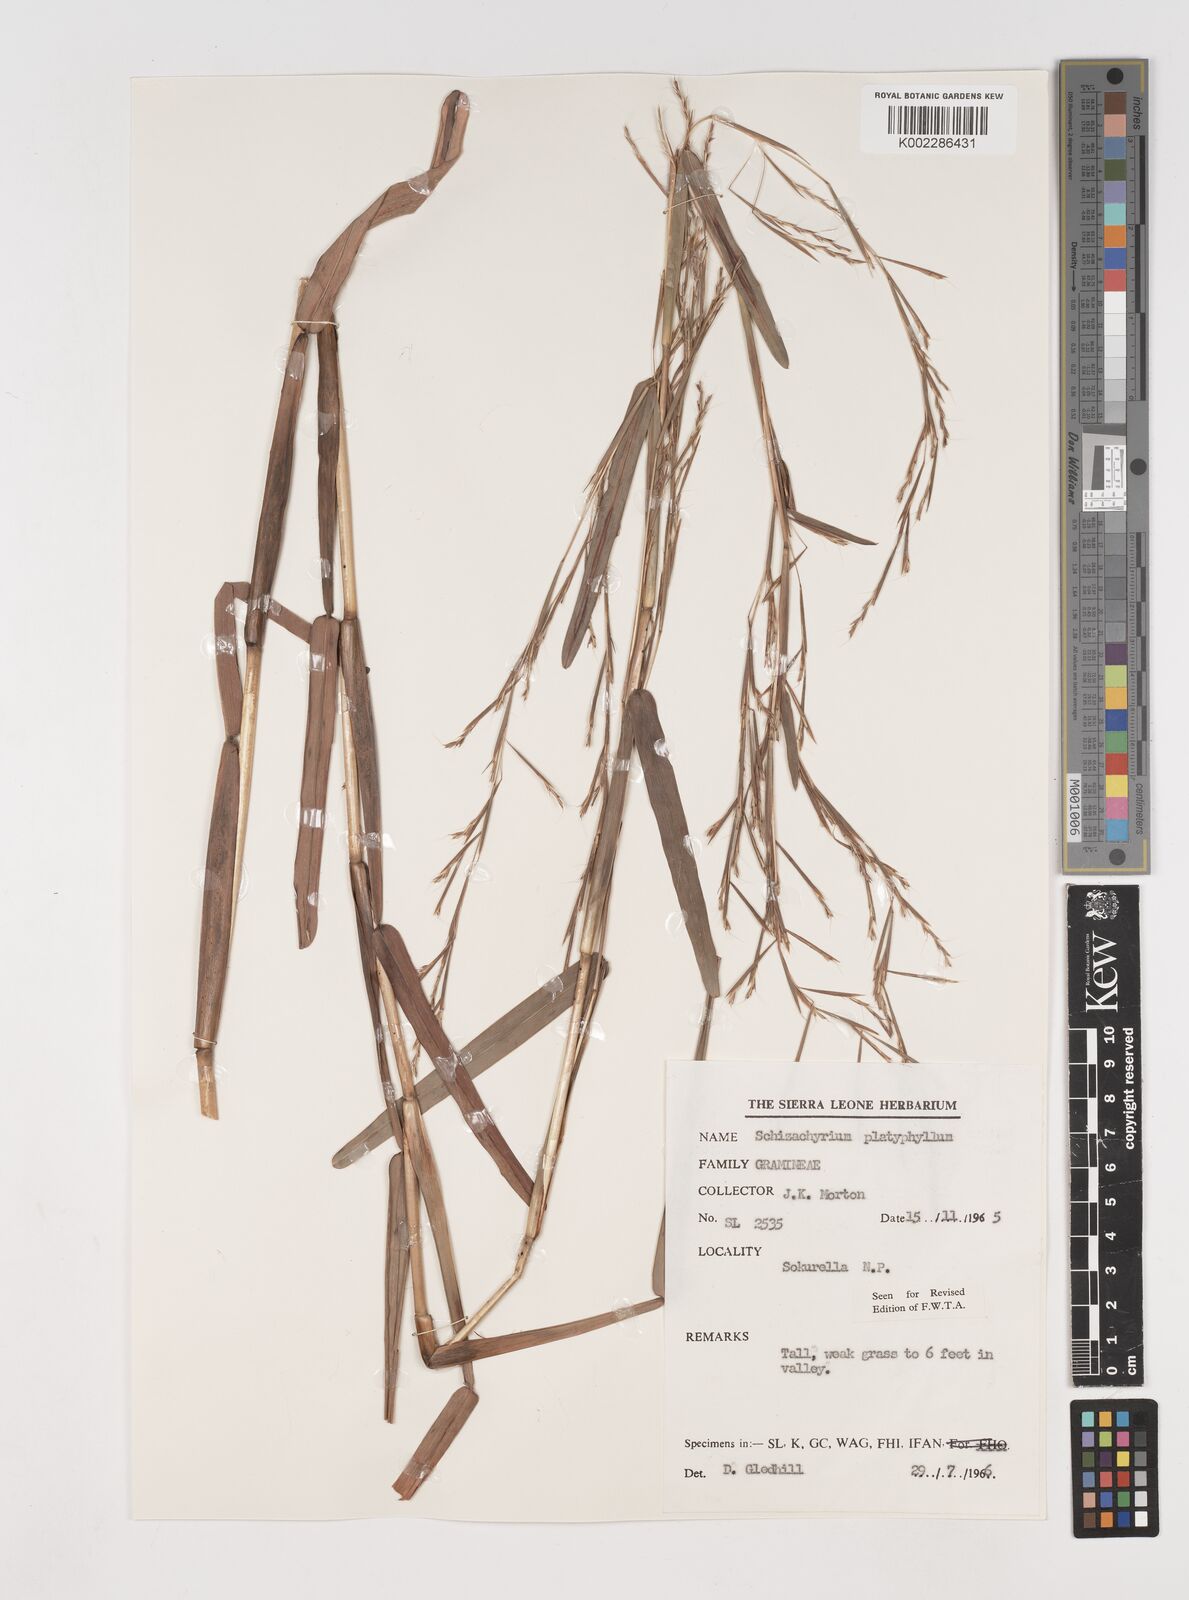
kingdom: Plantae
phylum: Tracheophyta
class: Liliopsida
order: Poales
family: Poaceae
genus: Schizachyrium
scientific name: Schizachyrium platyphyllum
